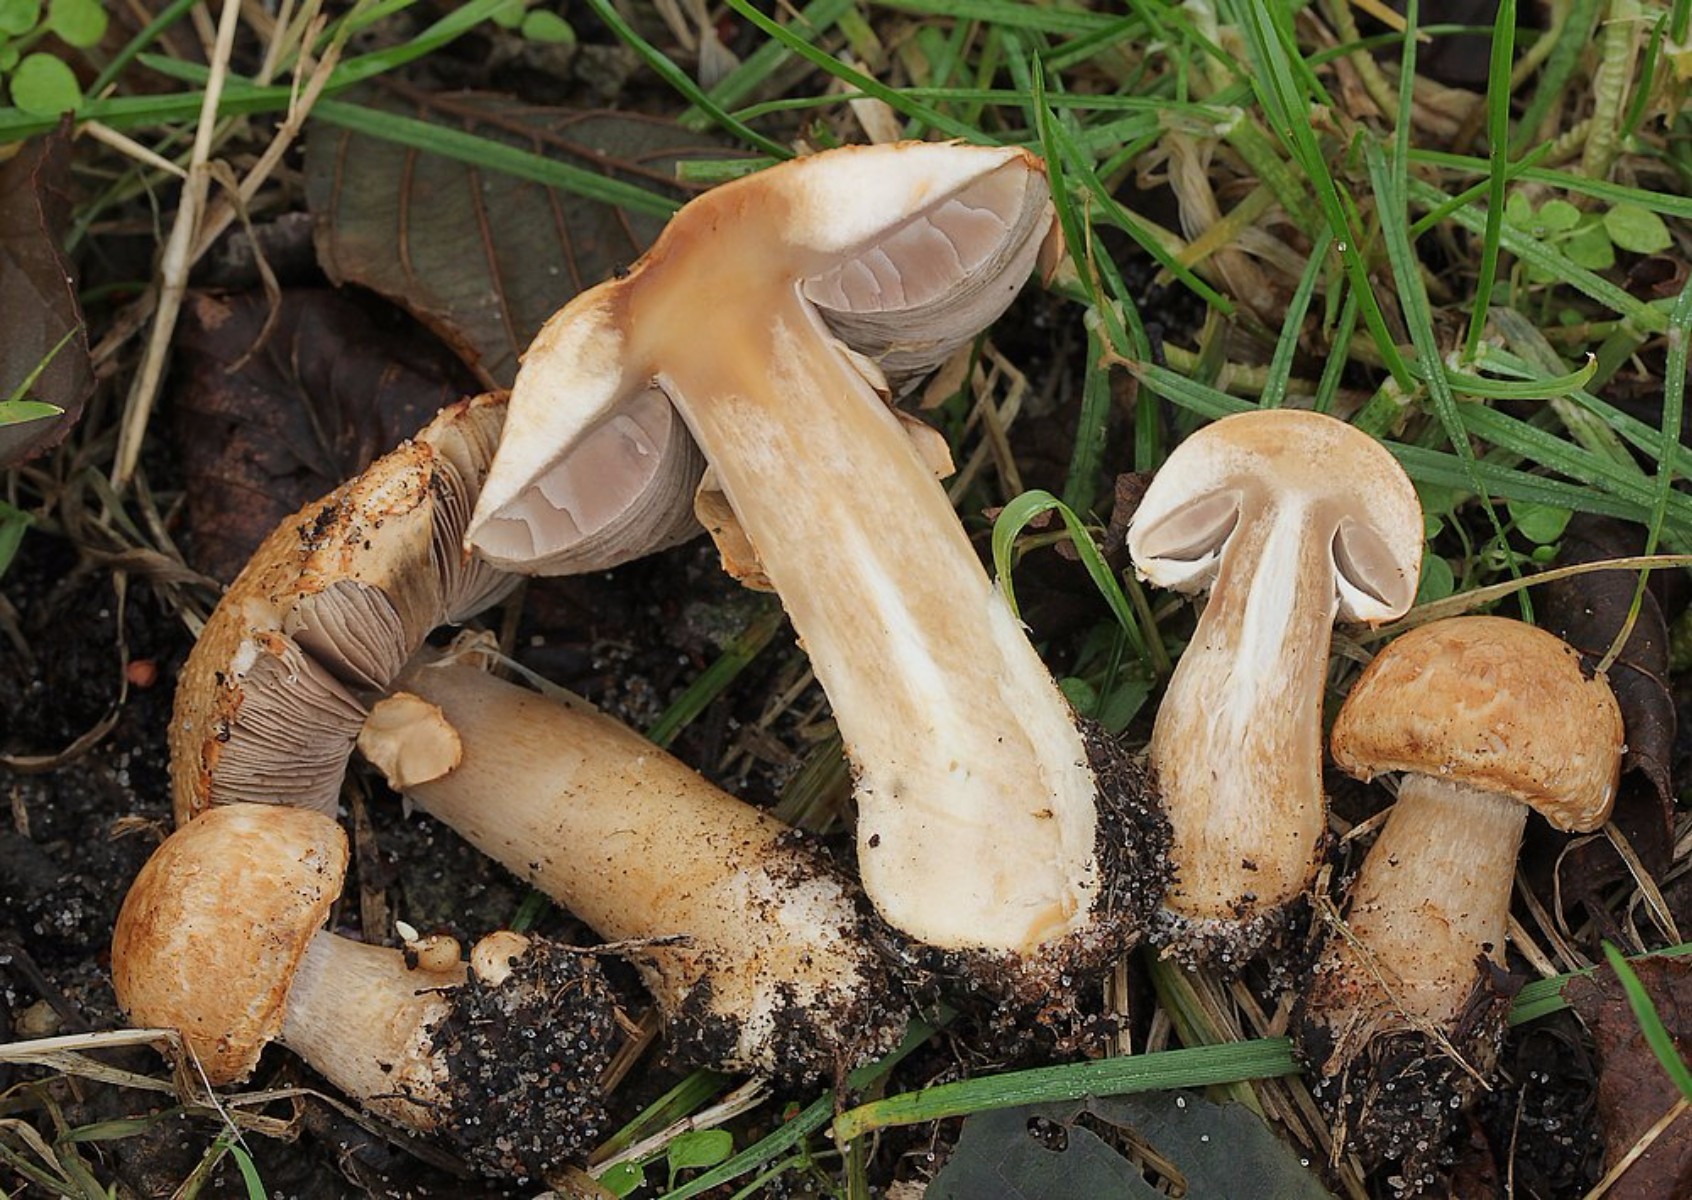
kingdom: Fungi
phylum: Basidiomycota
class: Agaricomycetes
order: Agaricales
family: Agaricaceae
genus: Agaricus
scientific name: Agaricus
